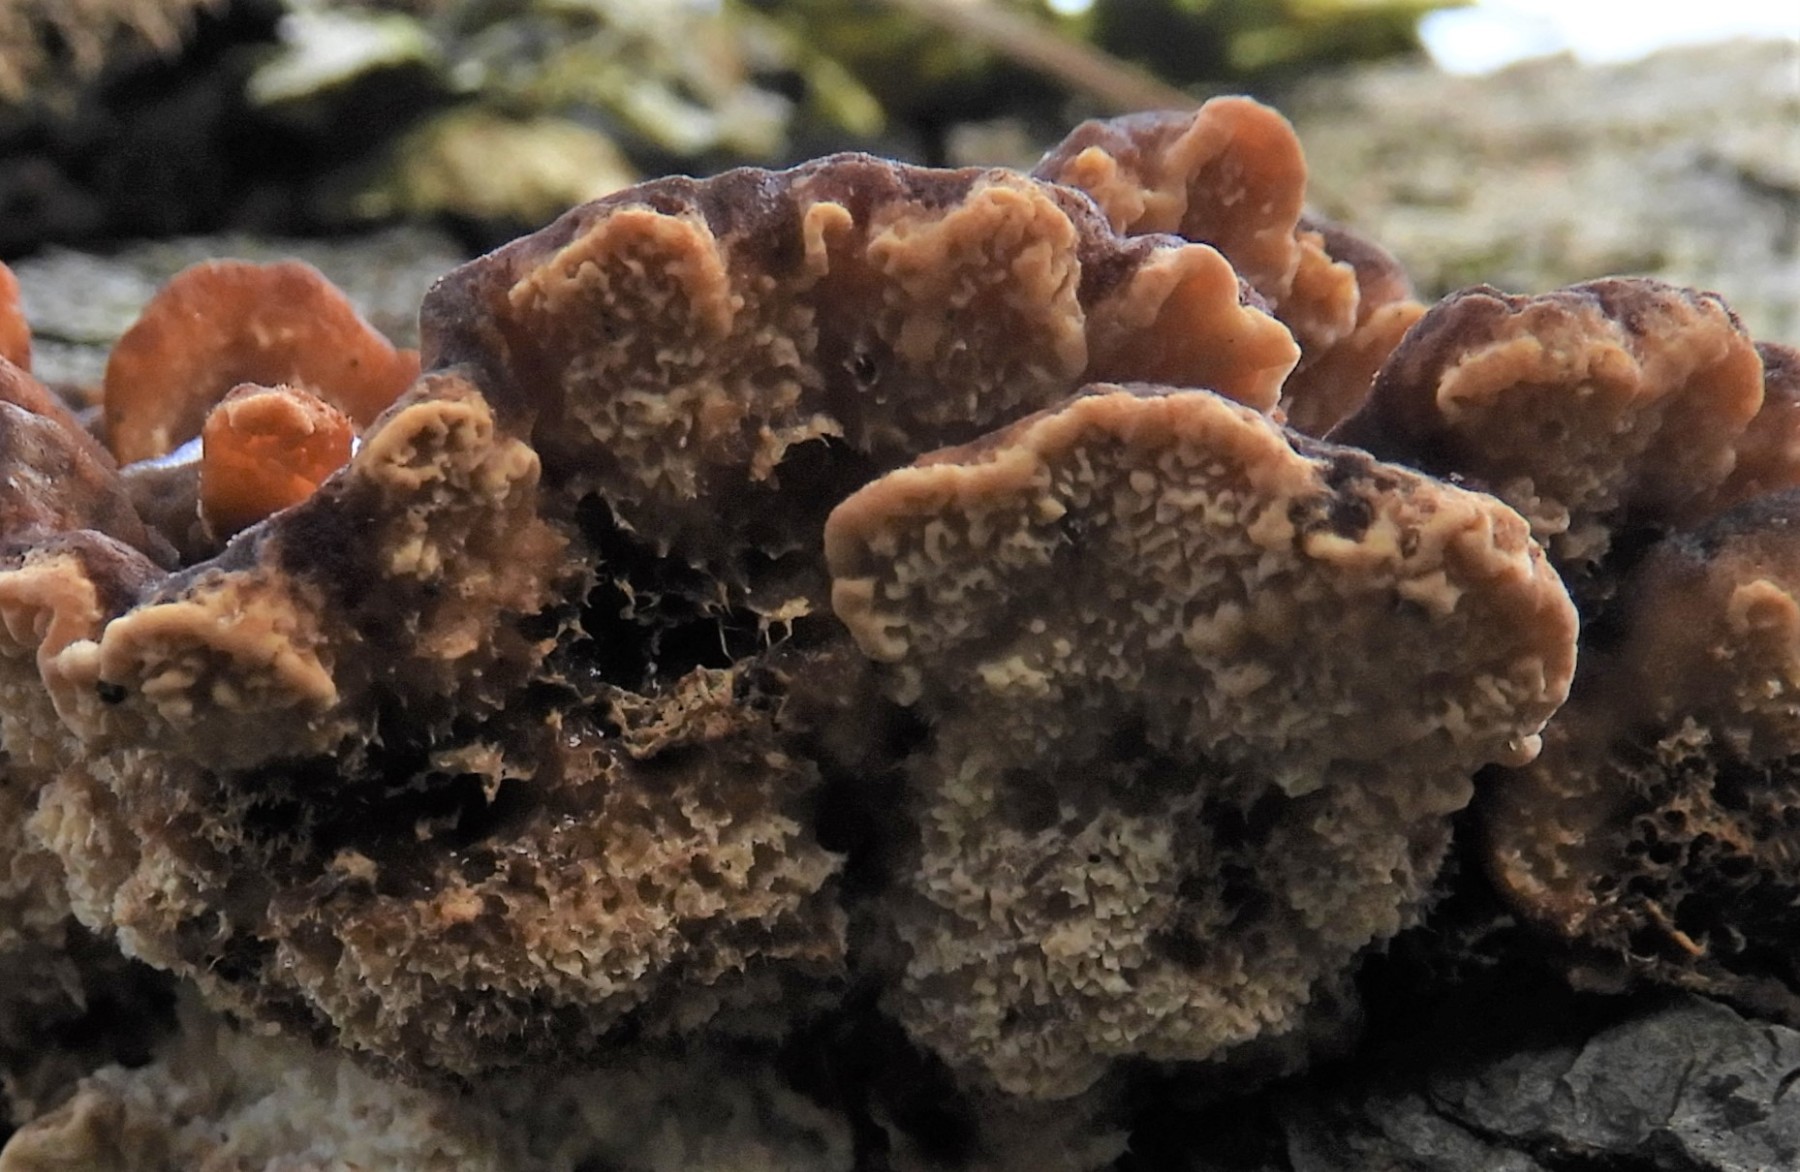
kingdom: Fungi
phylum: Basidiomycota
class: Agaricomycetes
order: Polyporales
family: Polyporaceae
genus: Trametes
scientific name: Trametes versicolor
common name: broget læderporesvamp
